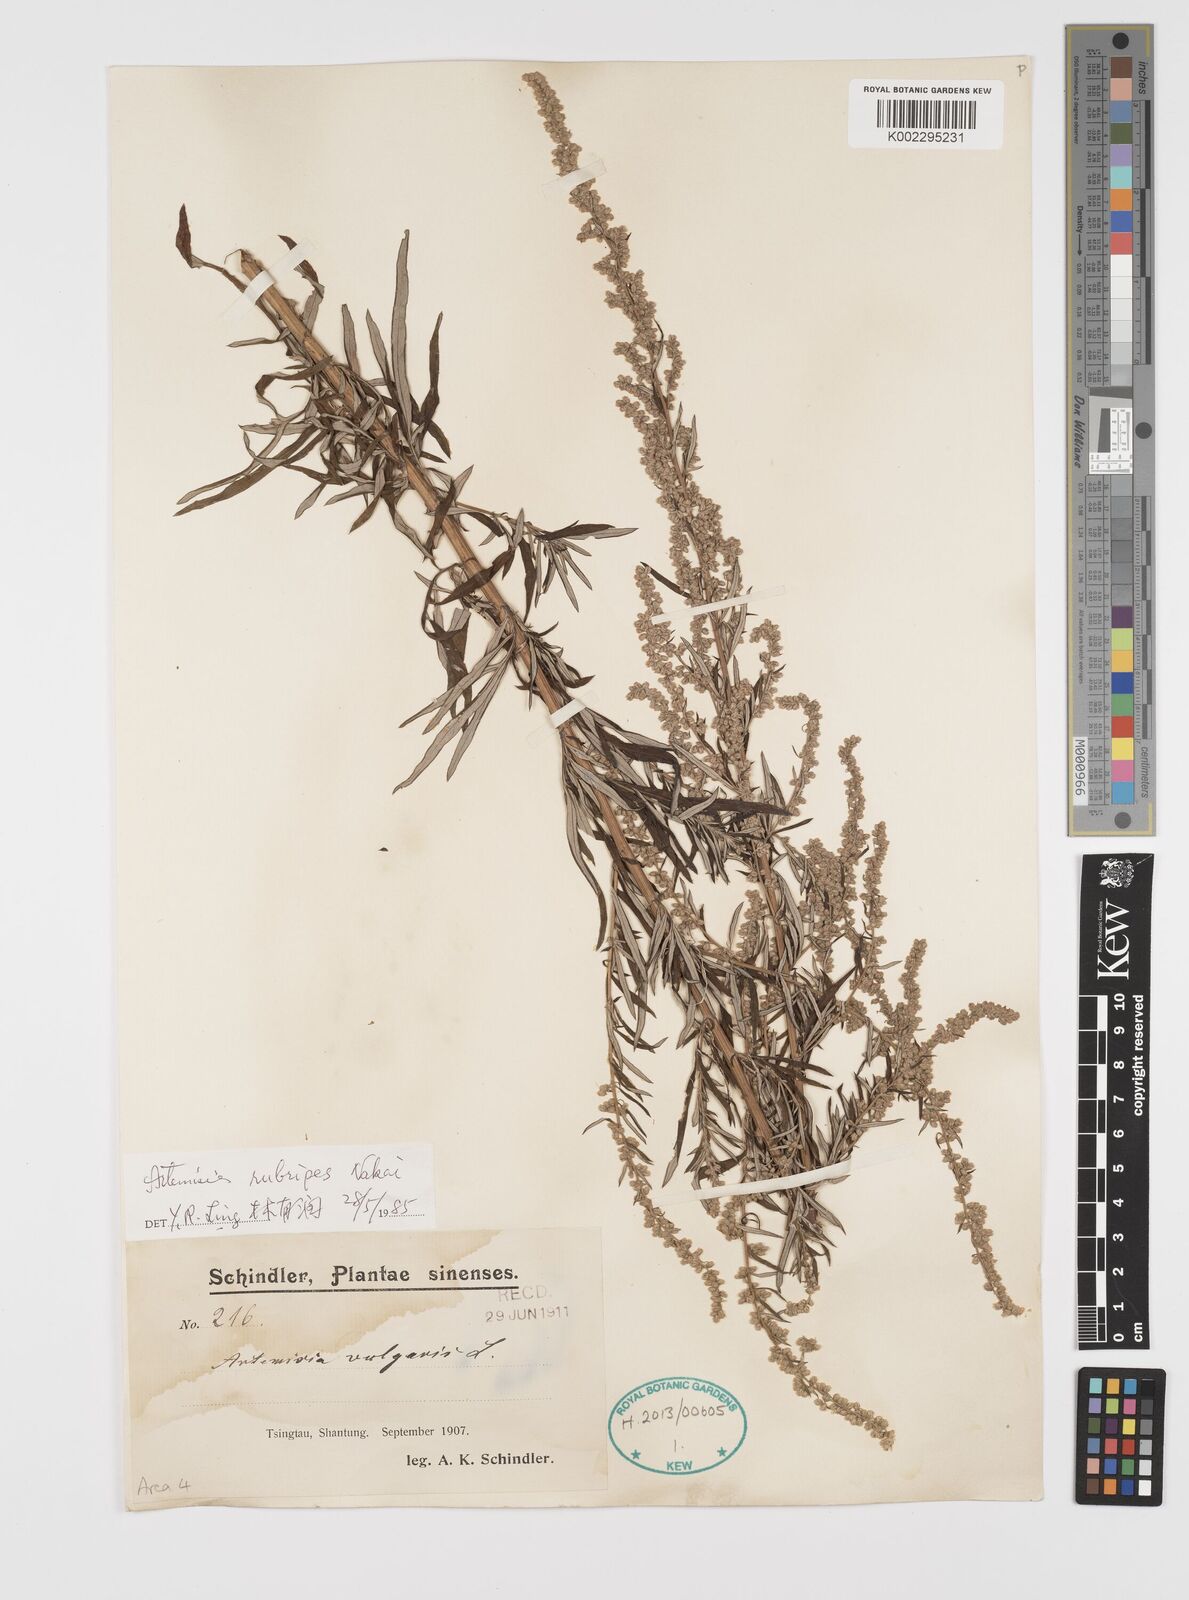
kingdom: Plantae
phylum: Tracheophyta
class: Magnoliopsida
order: Asterales
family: Asteraceae
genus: Artemisia
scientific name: Artemisia rubripes
